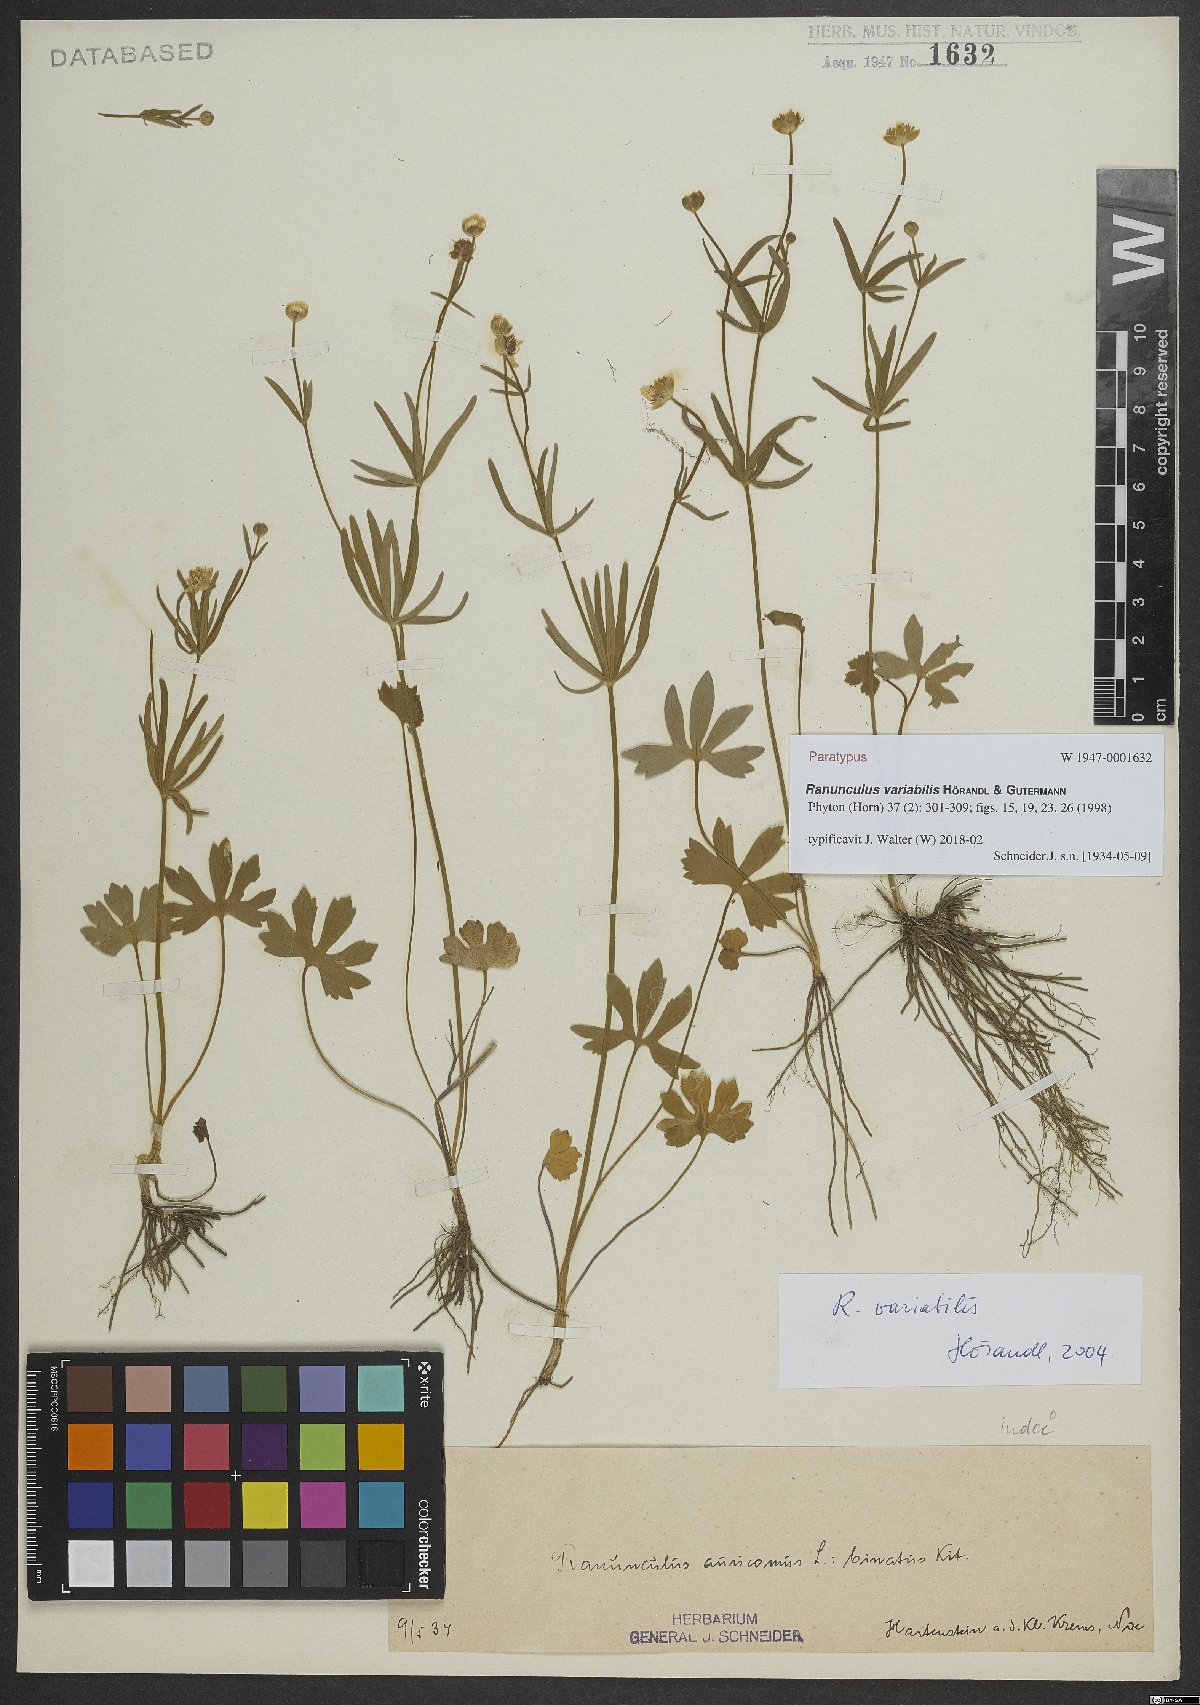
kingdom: Plantae
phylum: Tracheophyta
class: Magnoliopsida
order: Ranunculales
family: Ranunculaceae
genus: Ranunculus
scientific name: Ranunculus variabilis
